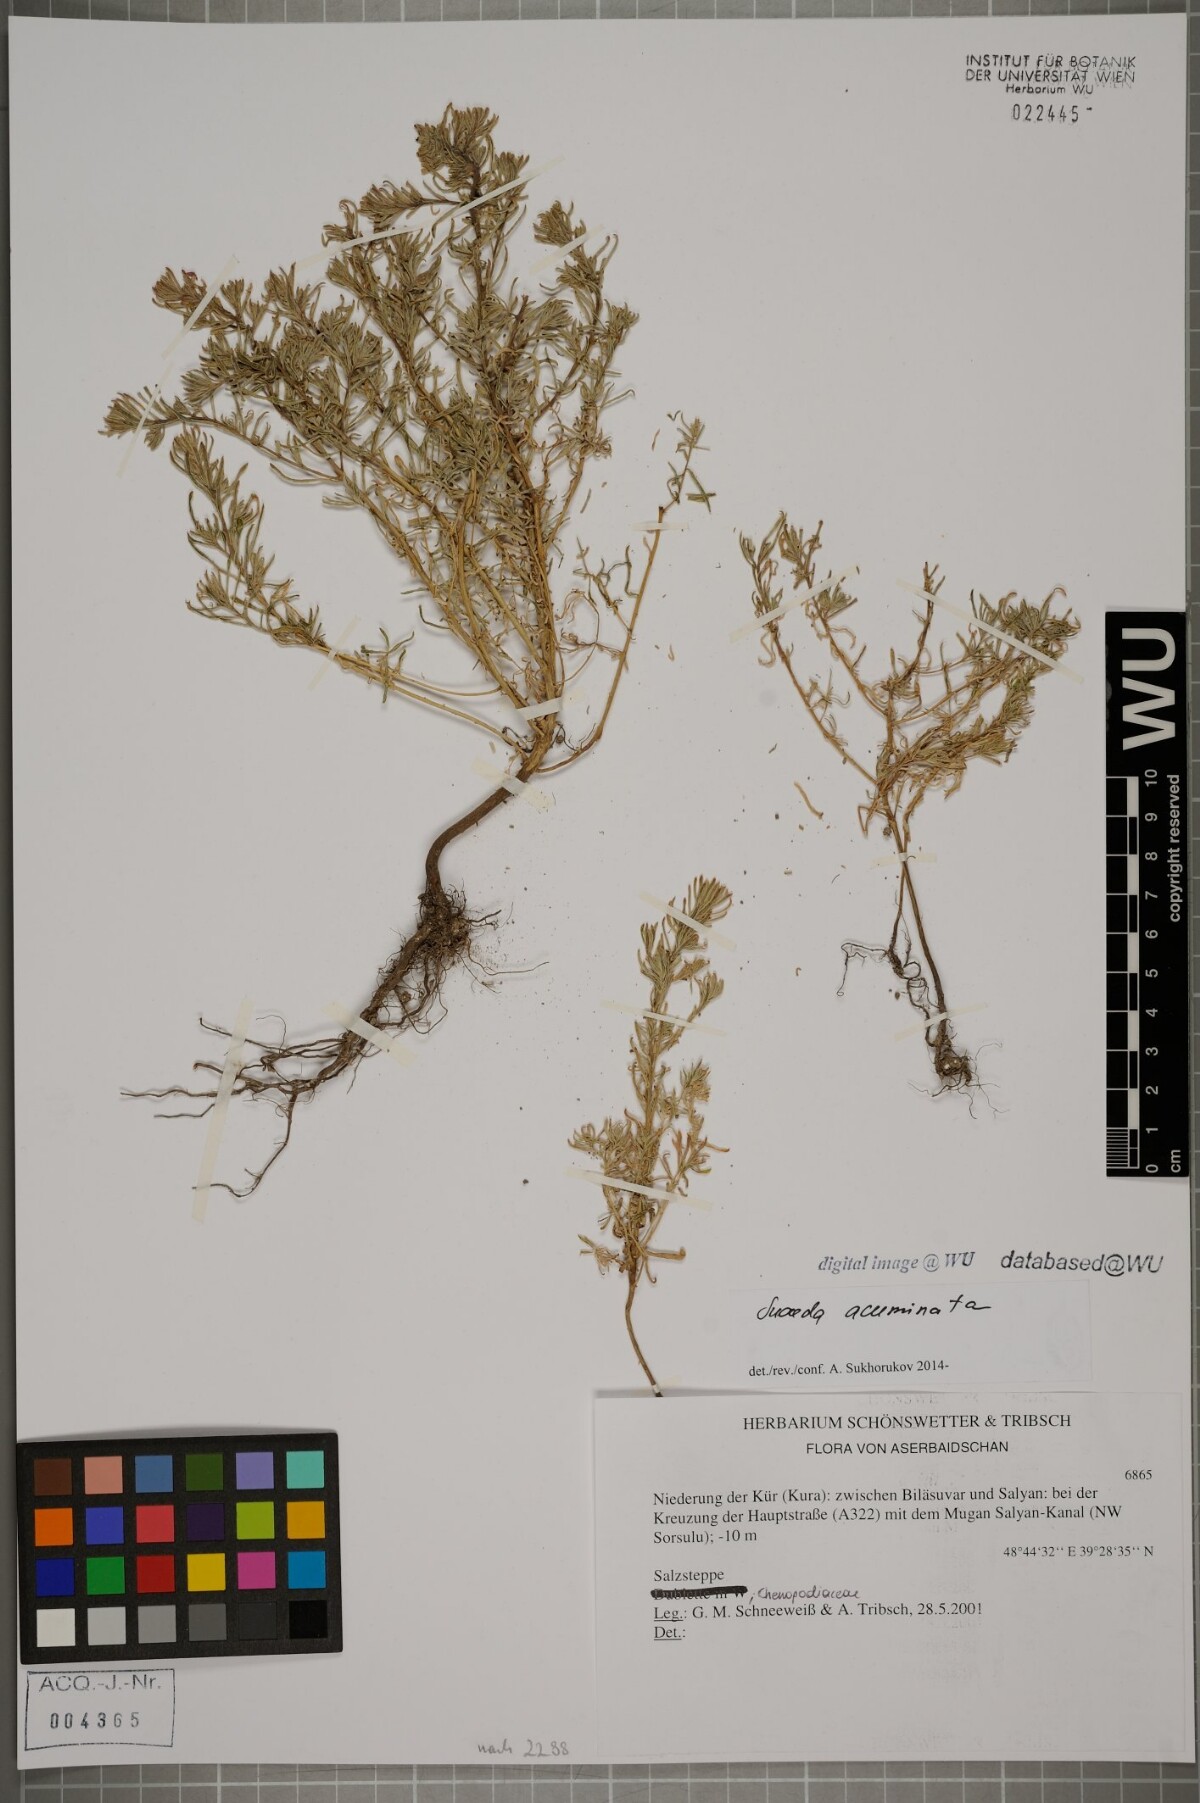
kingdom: Plantae
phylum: Tracheophyta
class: Magnoliopsida
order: Caryophyllales
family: Amaranthaceae
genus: Suaeda
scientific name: Suaeda acuminata
